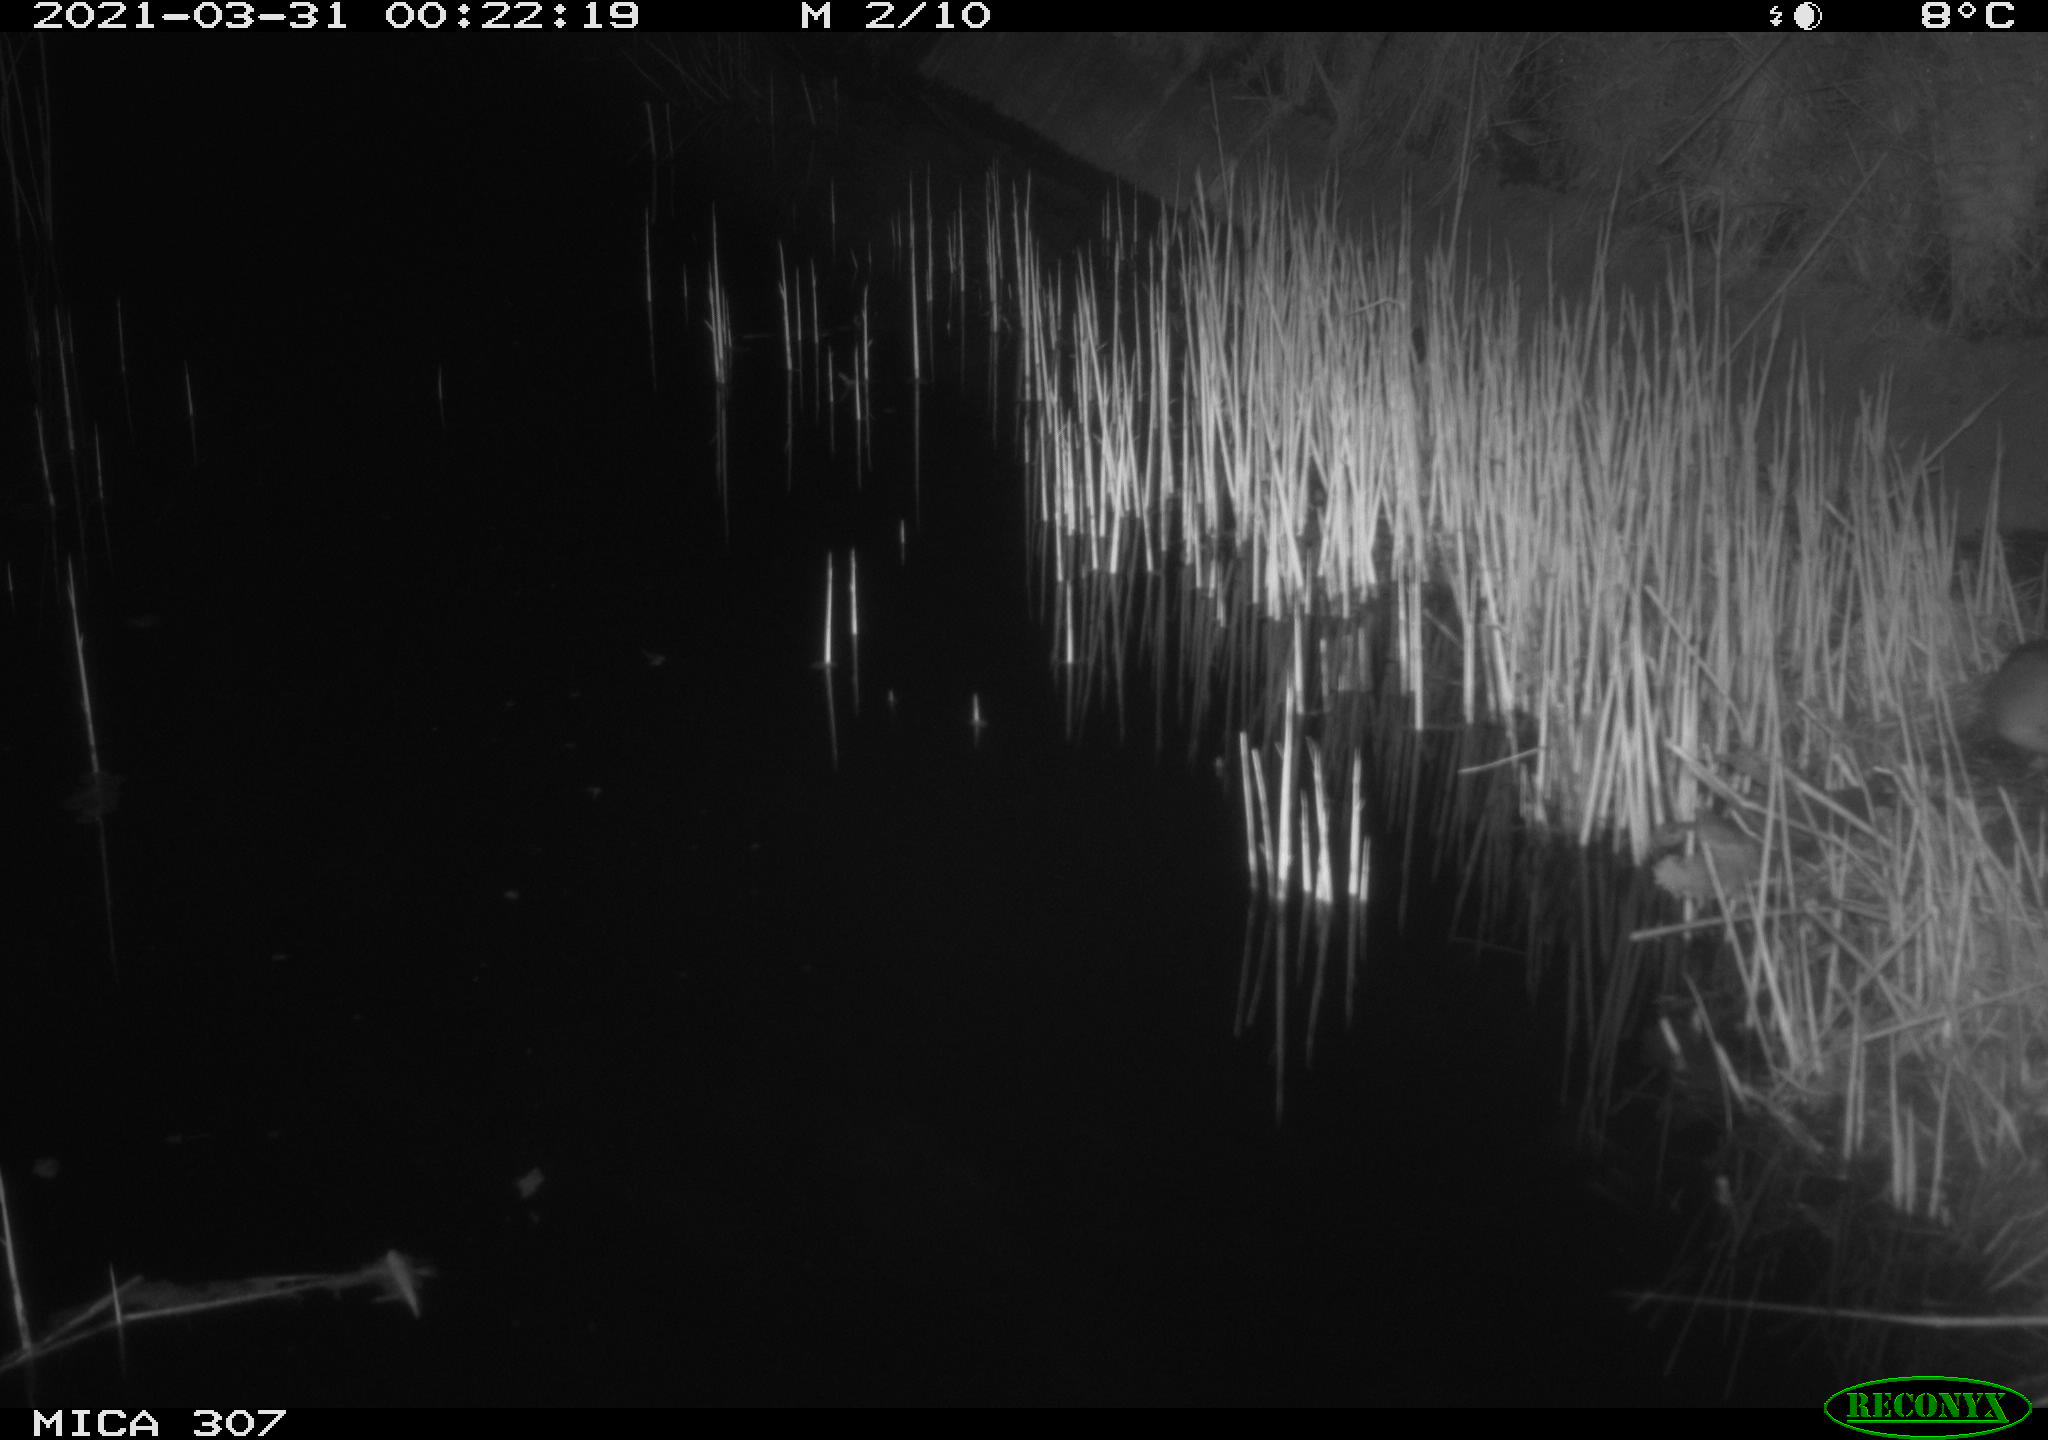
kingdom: Animalia
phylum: Chordata
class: Mammalia
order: Rodentia
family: Muridae
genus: Rattus
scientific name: Rattus norvegicus
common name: Brown rat
